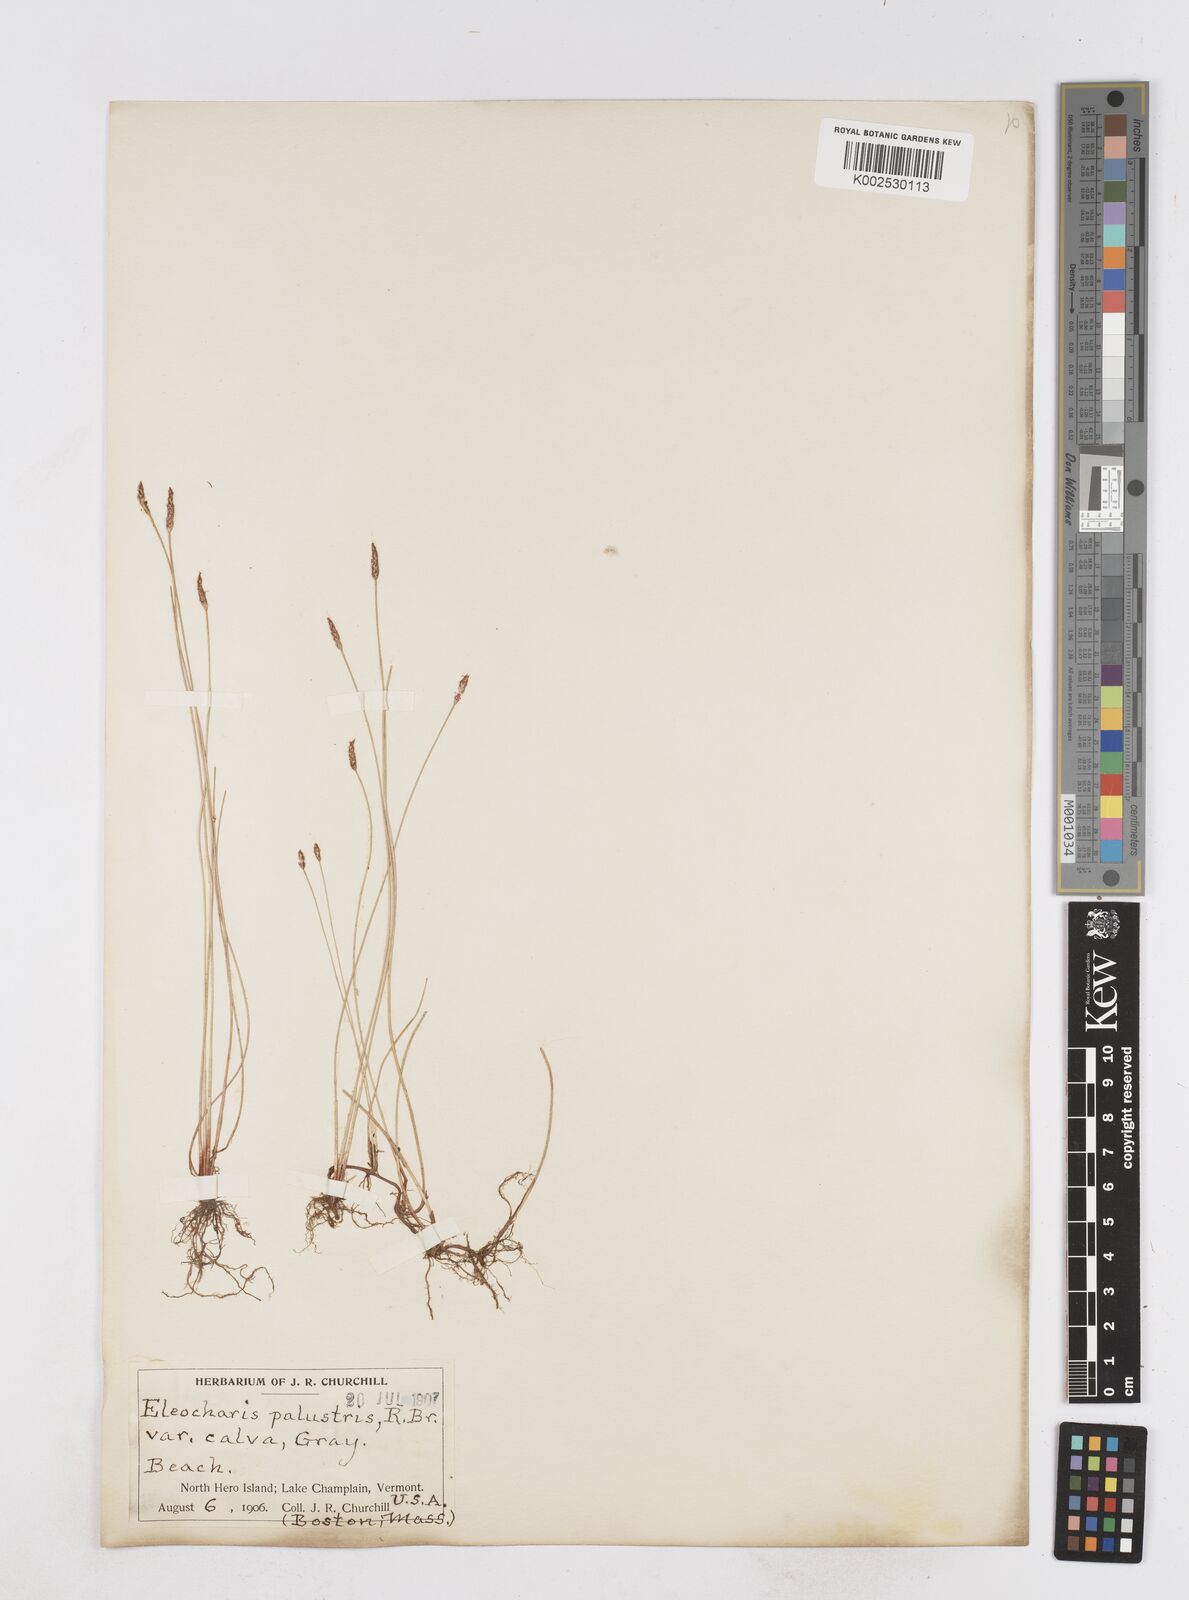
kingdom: Plantae
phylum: Tracheophyta
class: Liliopsida
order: Poales
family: Cyperaceae
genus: Eleocharis
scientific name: Eleocharis erythropoda
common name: Bald spikerush
